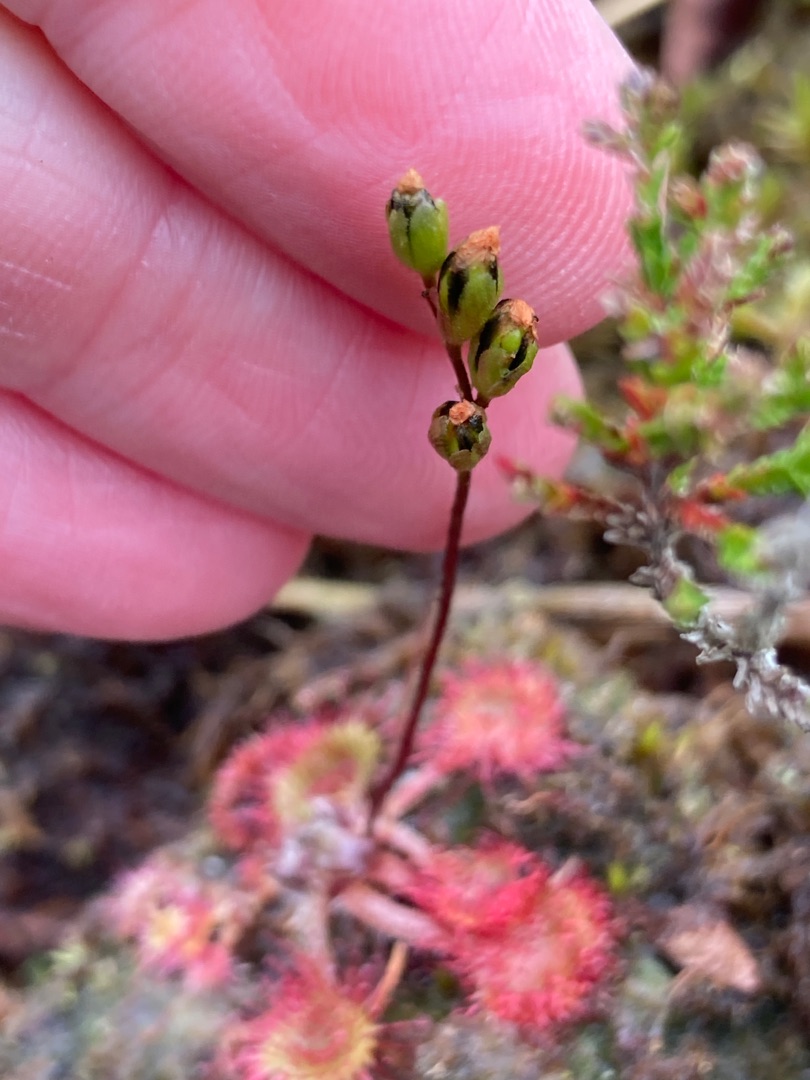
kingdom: Plantae
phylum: Tracheophyta
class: Magnoliopsida
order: Caryophyllales
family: Droseraceae
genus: Drosera
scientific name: Drosera rotundifolia
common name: Rundbladet soldug
